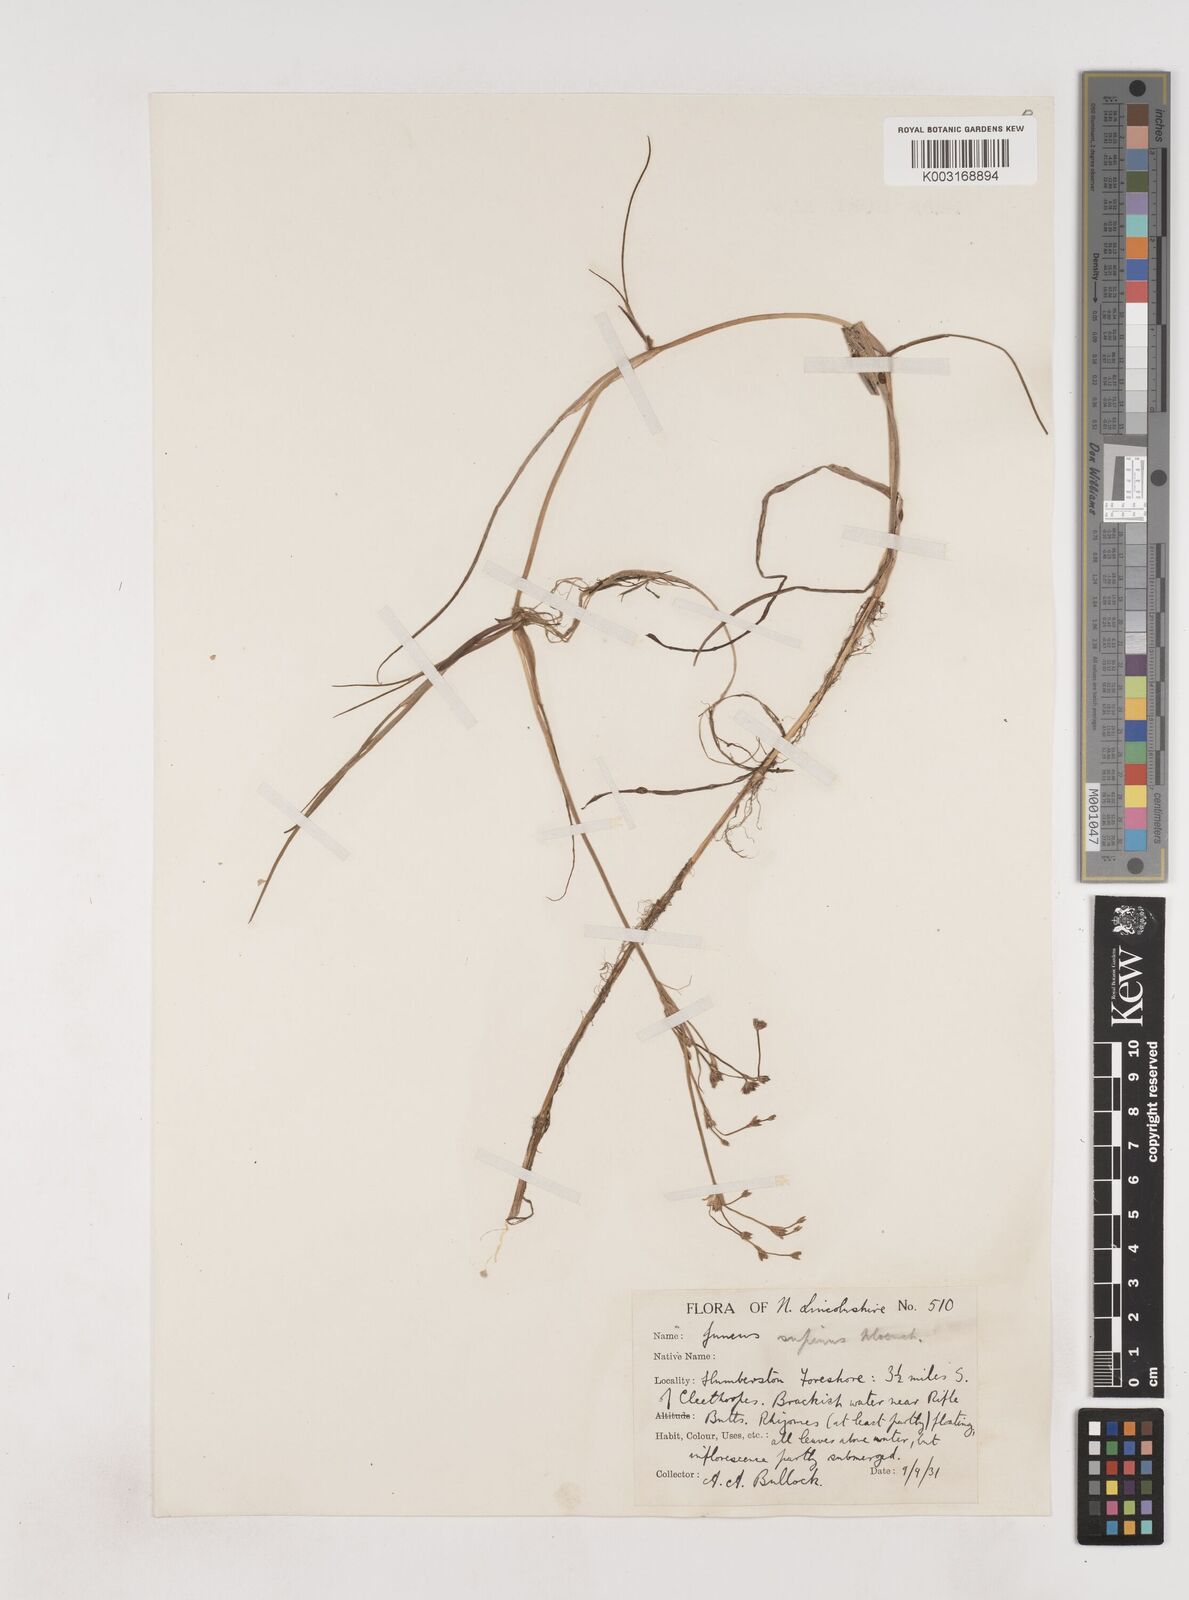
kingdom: Plantae
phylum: Tracheophyta
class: Liliopsida
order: Poales
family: Juncaceae
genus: Juncus
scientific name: Juncus bulbosus
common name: Bulbous rush
